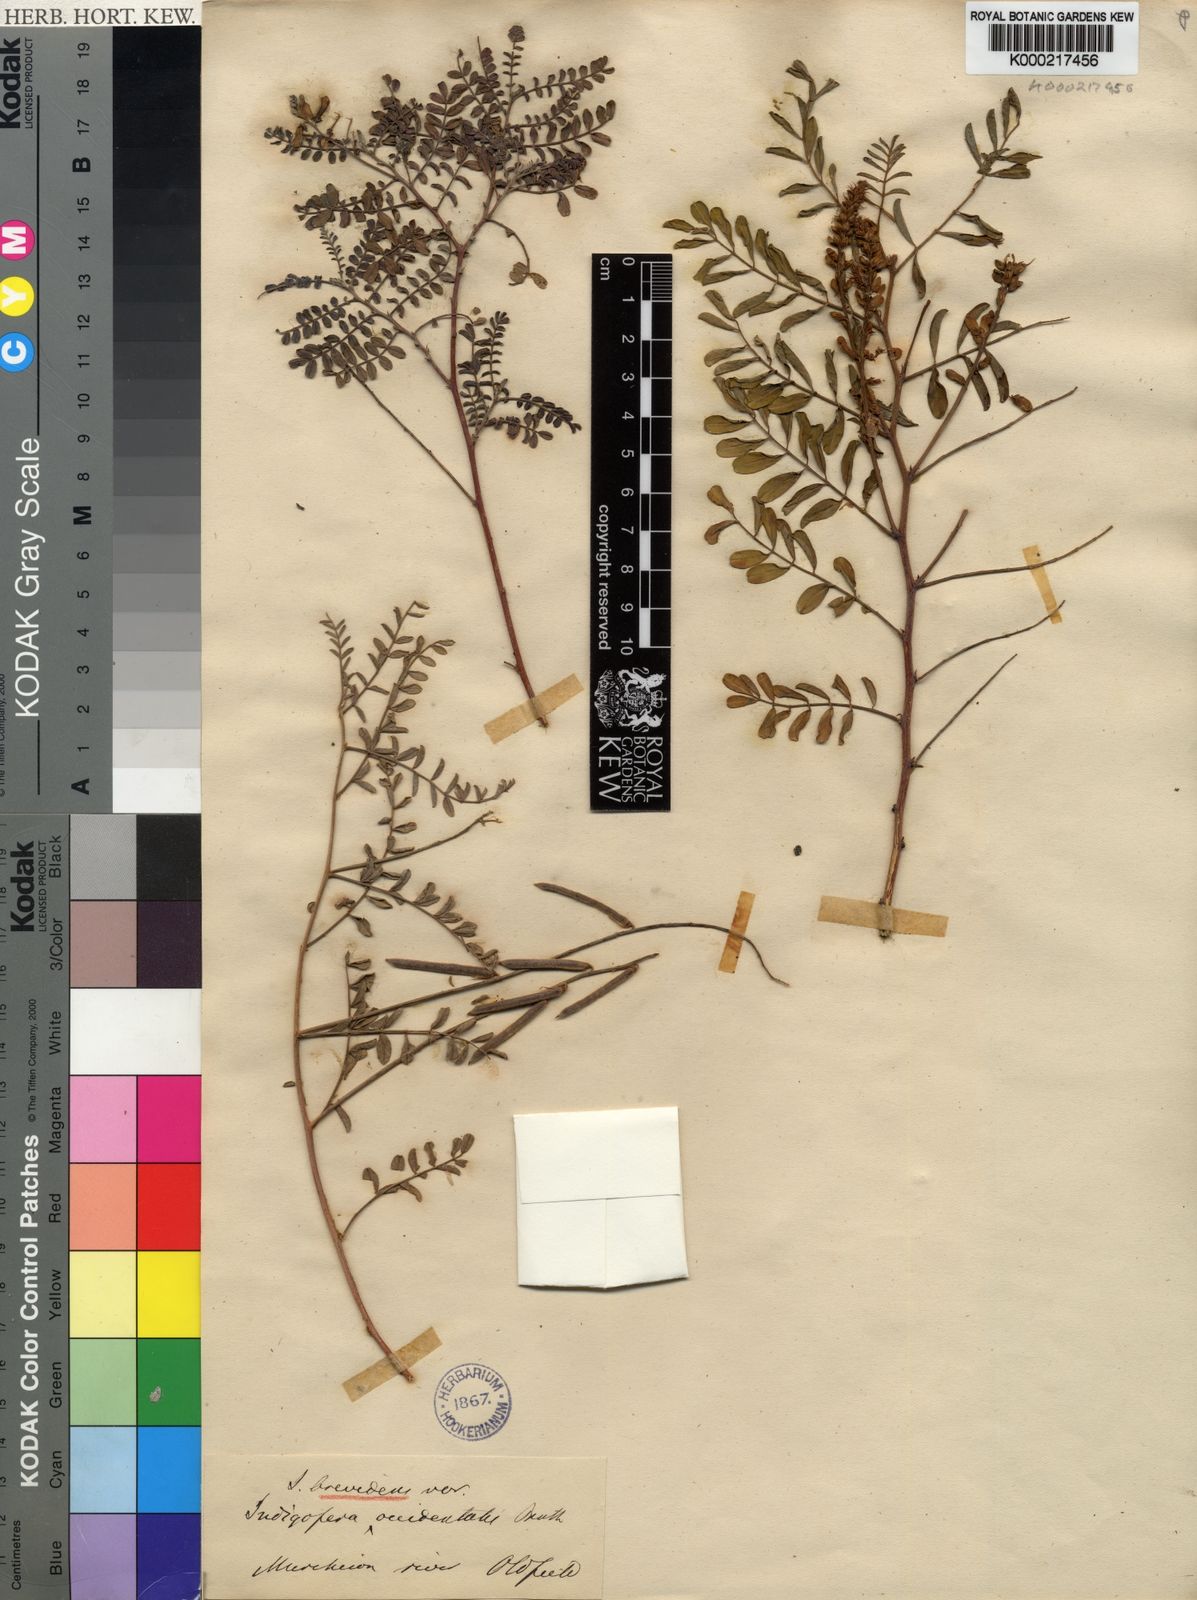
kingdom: Plantae
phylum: Tracheophyta
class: Magnoliopsida
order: Fabales
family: Fabaceae
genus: Indigofera
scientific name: Indigofera brevidens
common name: Desert indigo
